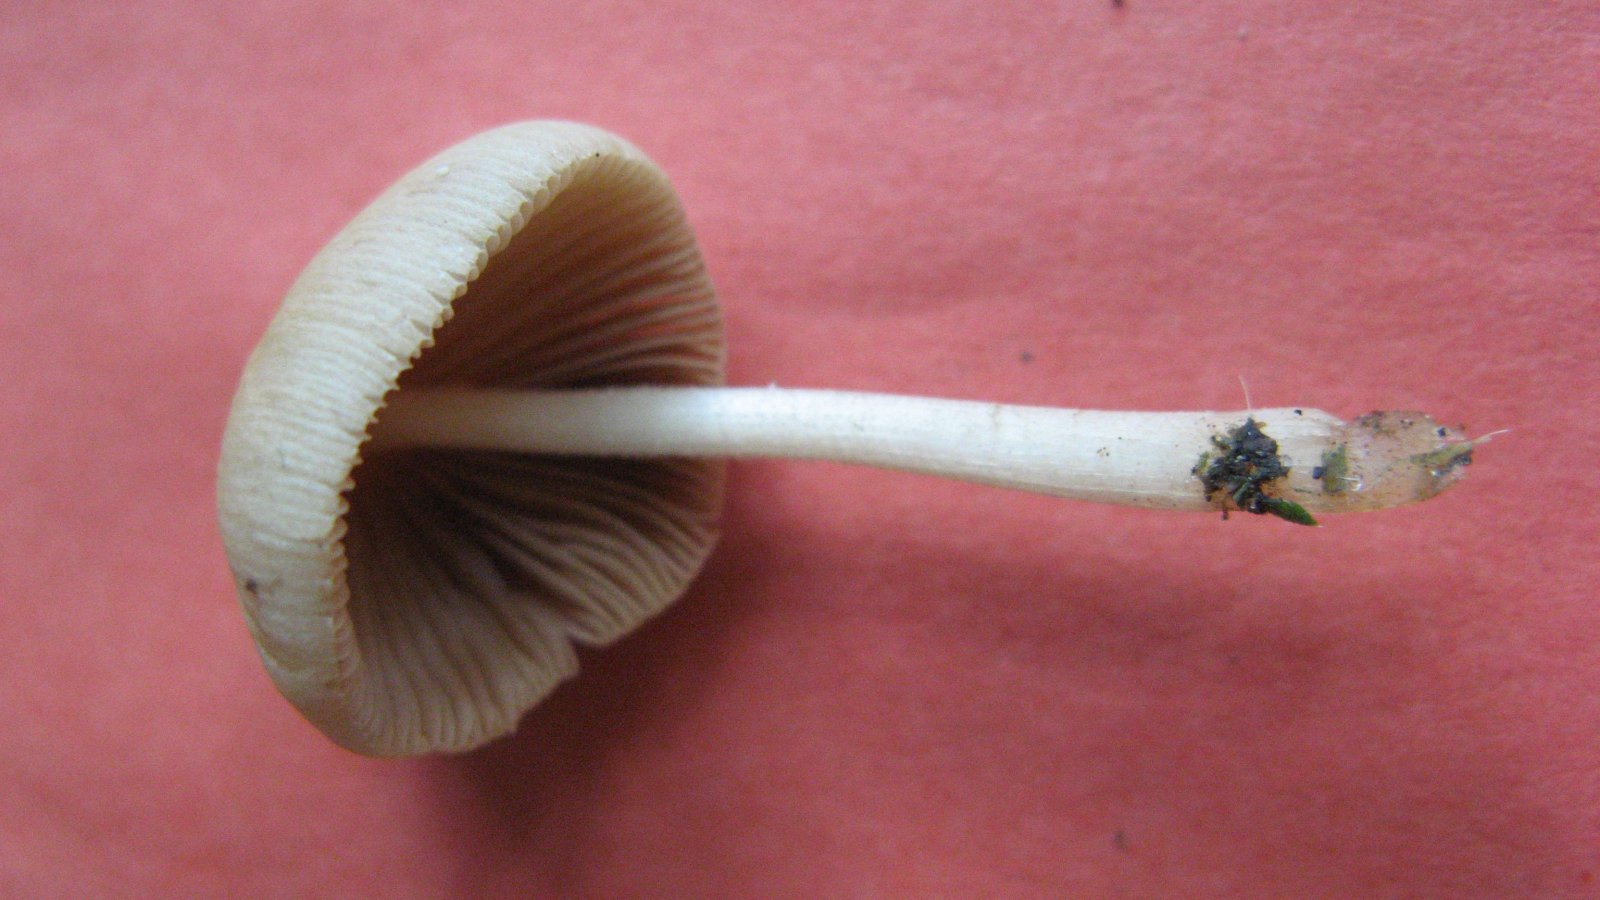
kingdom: Fungi
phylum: Basidiomycota
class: Agaricomycetes
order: Agaricales
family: Bolbitiaceae
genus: Conocybe
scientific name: Conocybe velutipes
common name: lædergul keglehat
